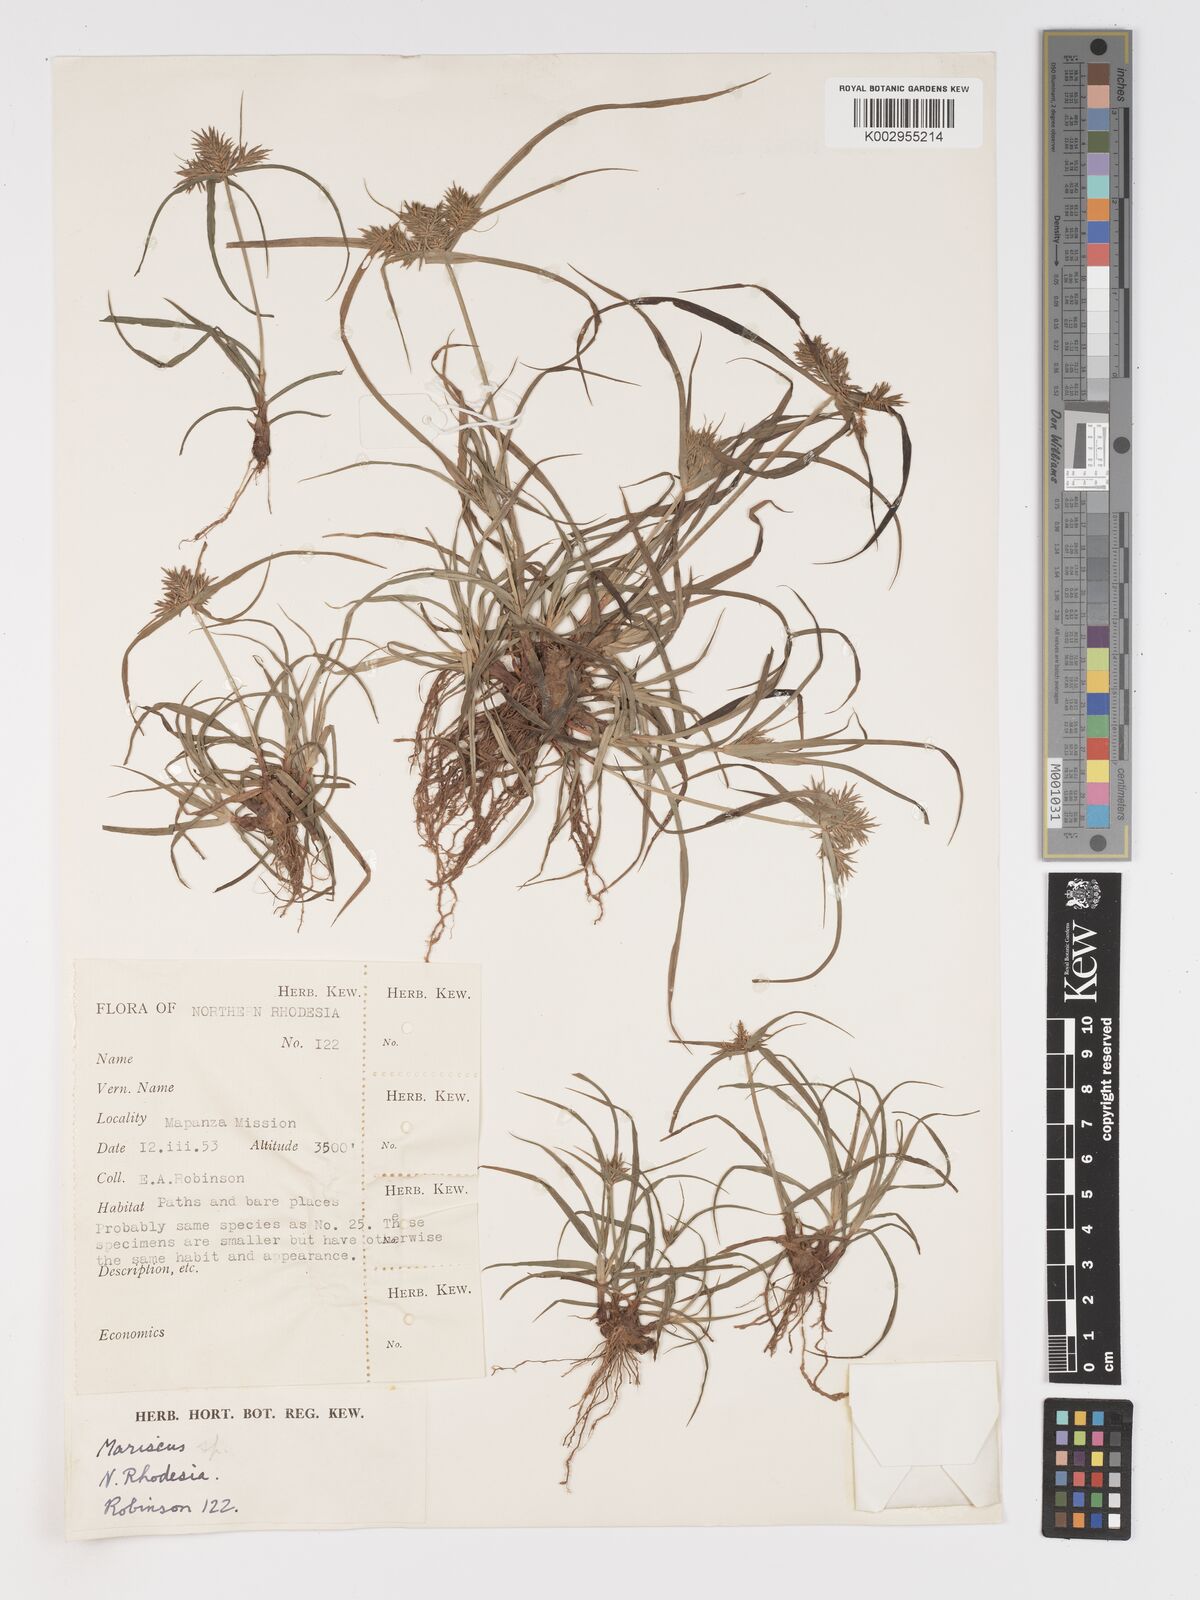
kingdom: Plantae
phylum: Tracheophyta
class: Liliopsida
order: Poales
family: Cyperaceae
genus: Cyperus
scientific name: Cyperus
